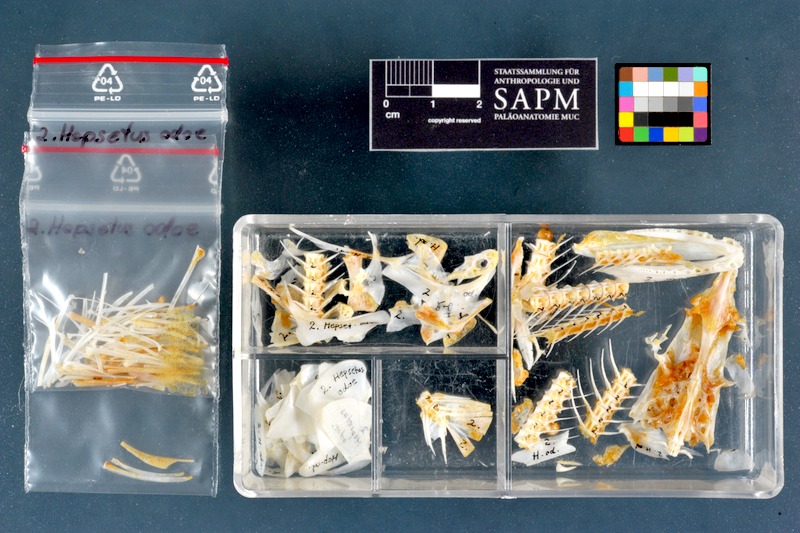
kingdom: Animalia
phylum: Chordata
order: Characiformes
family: Hepsetidae
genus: Hepsetus
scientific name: Hepsetus odoe
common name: African pike
